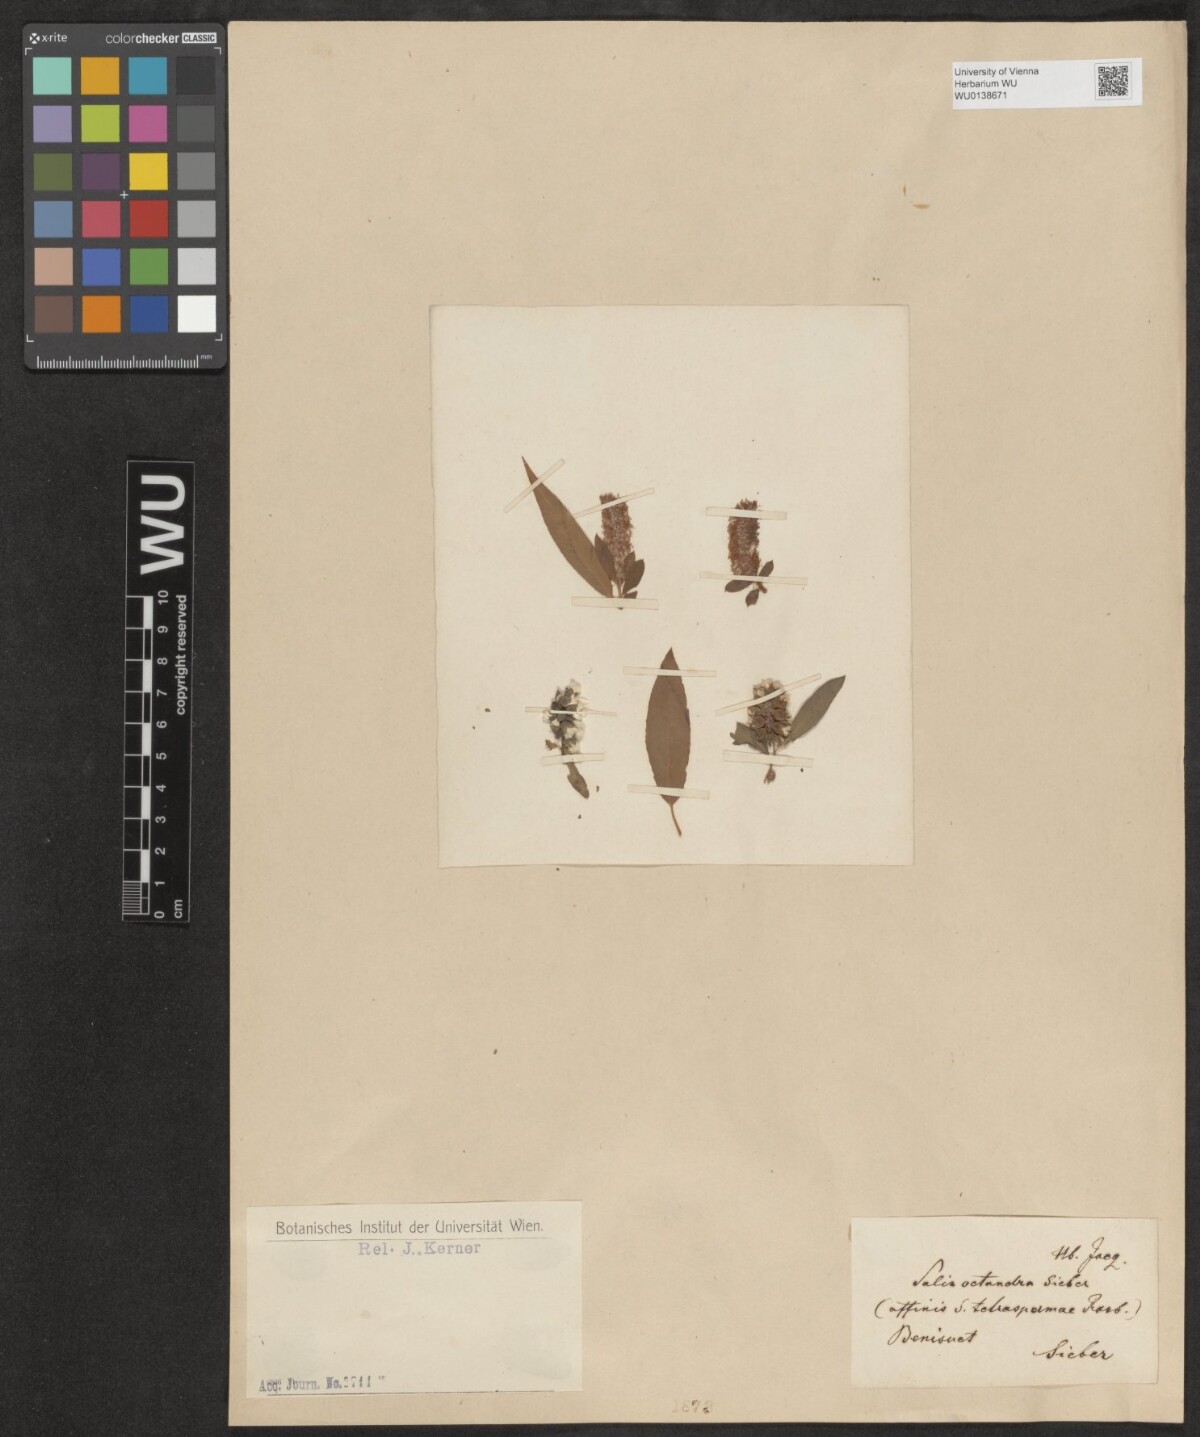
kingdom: Plantae
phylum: Tracheophyta
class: Magnoliopsida
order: Malpighiales
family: Salicaceae
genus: Salix
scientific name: Salix mucronata
